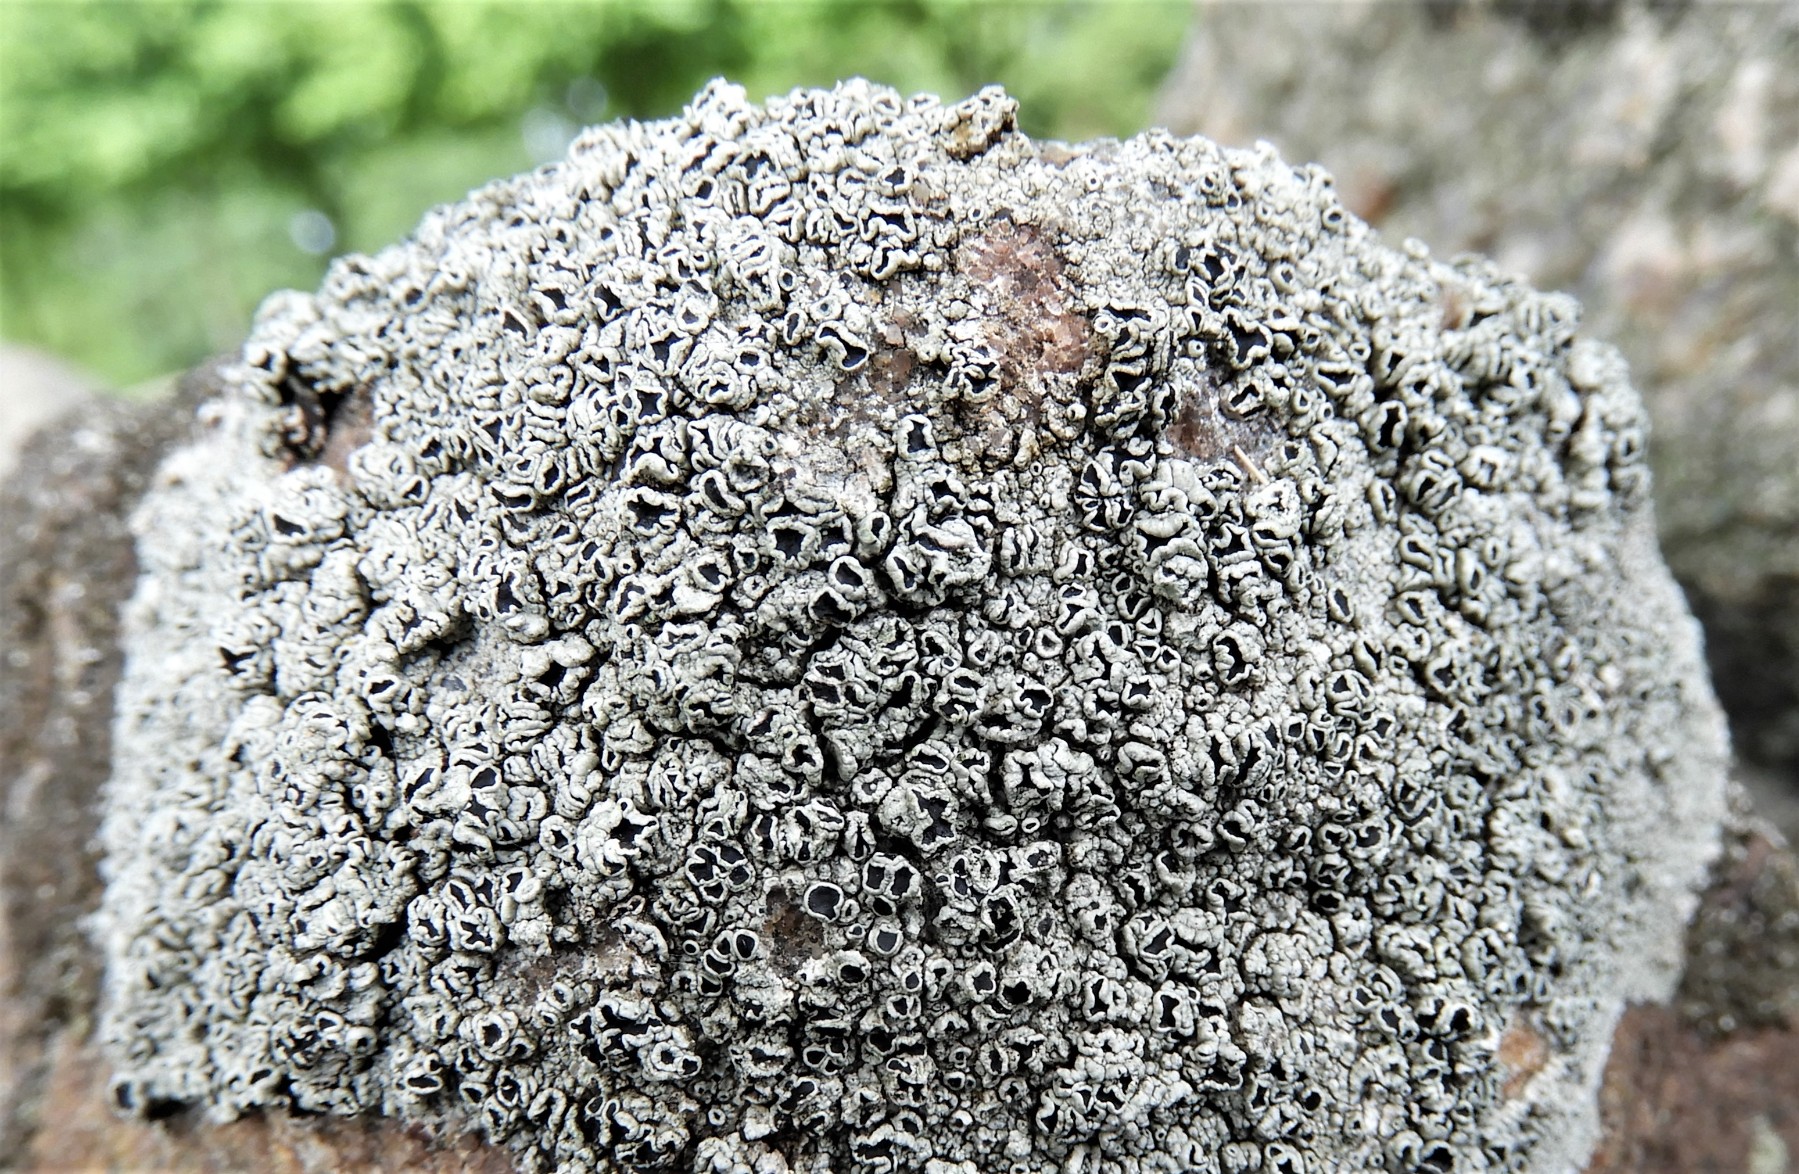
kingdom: Fungi
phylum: Ascomycota
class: Lecanoromycetes
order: Lecanorales
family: Tephromelataceae
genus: Tephromela
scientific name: Tephromela atra
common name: sortfrugtet kantskivelav
